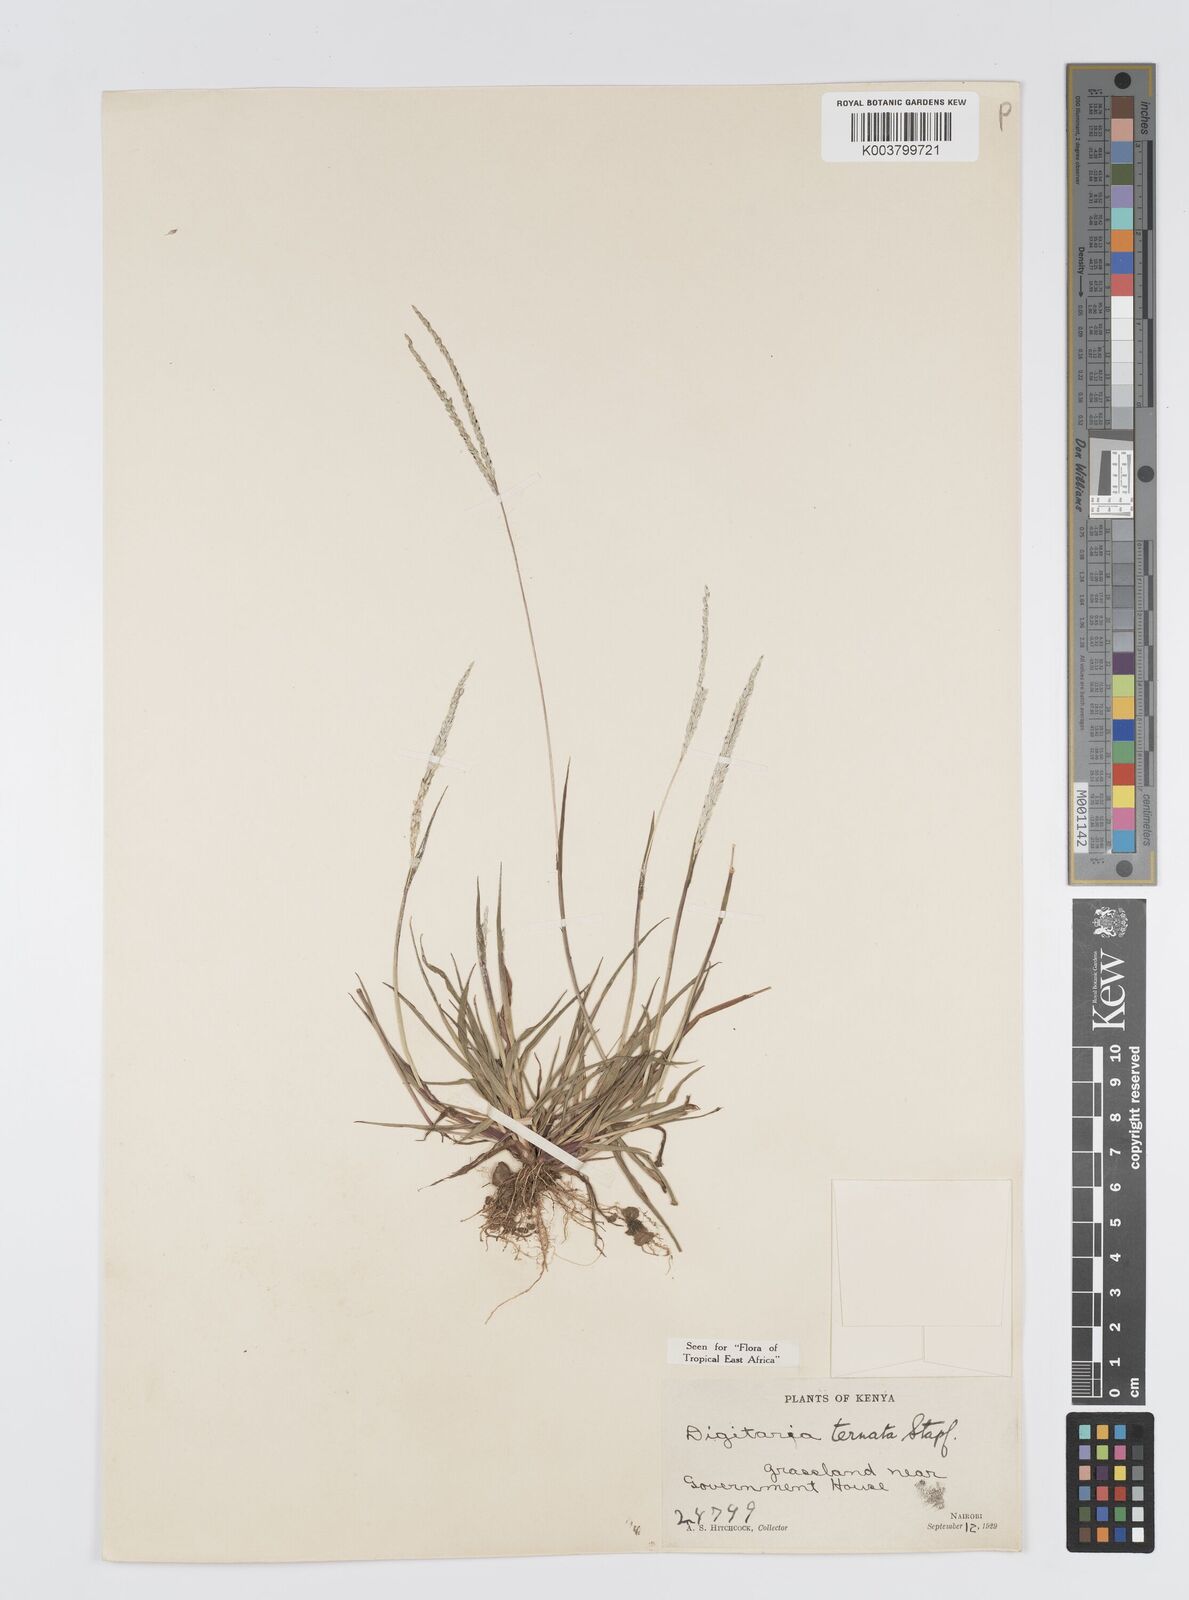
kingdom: Plantae
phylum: Tracheophyta
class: Liliopsida
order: Poales
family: Poaceae
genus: Digitaria
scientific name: Digitaria ternata
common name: Blackseed crabgrass
